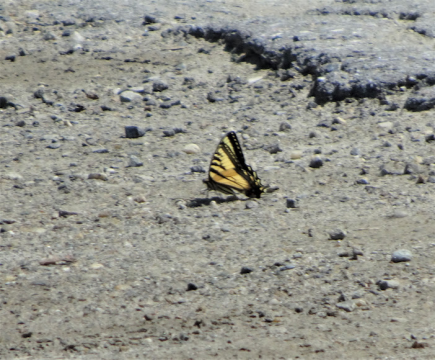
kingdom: Animalia
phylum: Arthropoda
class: Insecta
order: Lepidoptera
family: Papilionidae
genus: Pterourus
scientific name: Pterourus canadensis
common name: Canadian Tiger Swallowtail
